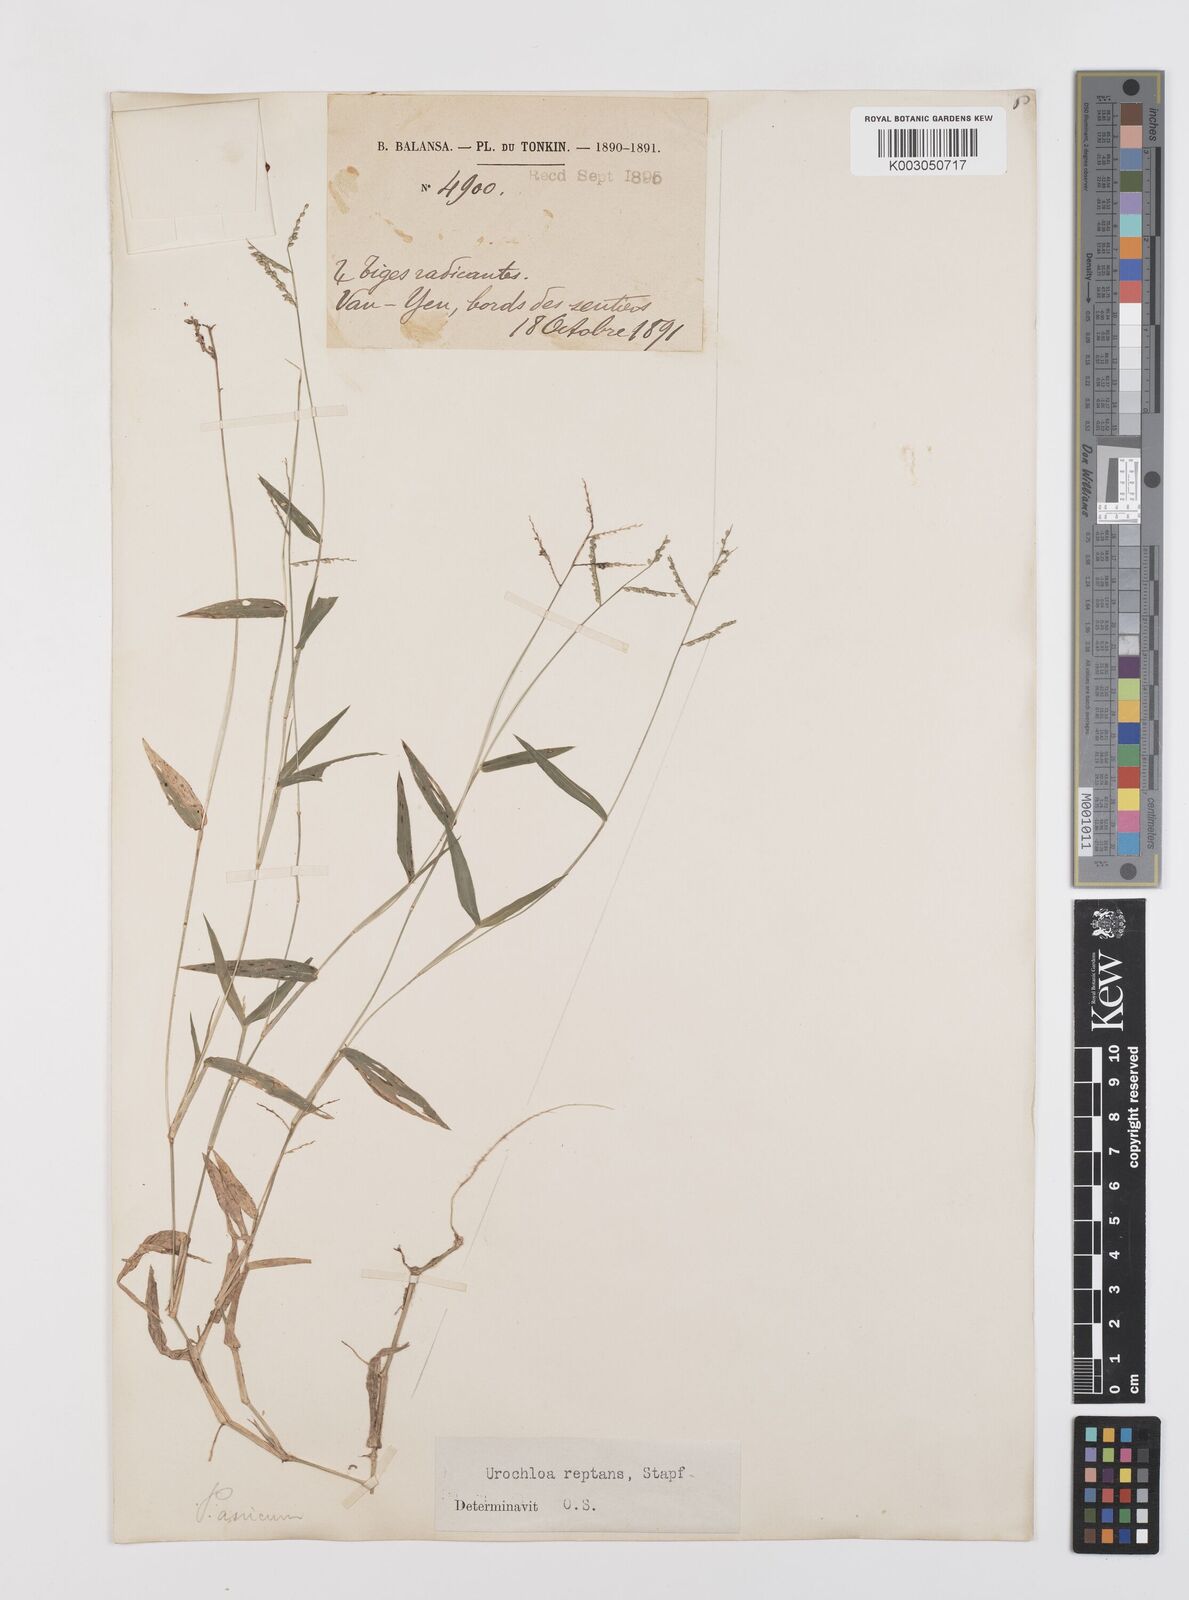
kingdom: Plantae
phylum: Tracheophyta
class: Liliopsida
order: Poales
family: Poaceae
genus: Urochloa
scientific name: Urochloa reptans
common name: Sprawling signalgrass
